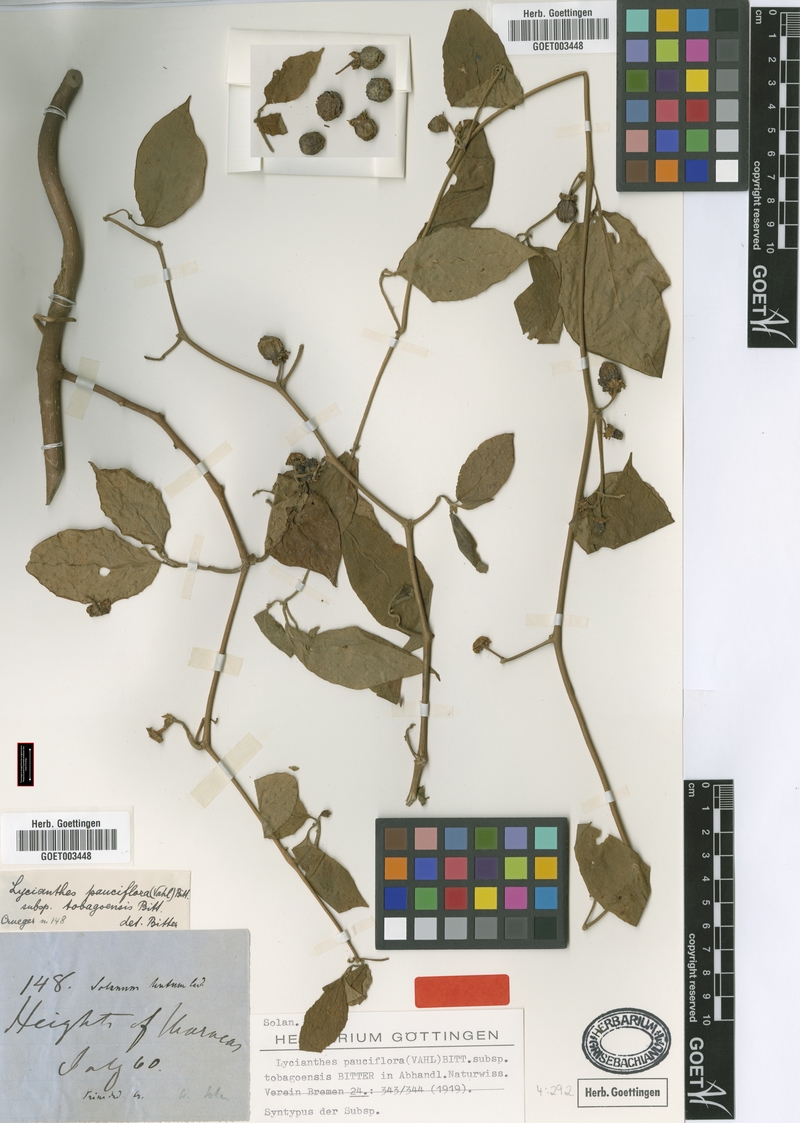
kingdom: Plantae
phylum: Tracheophyta
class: Magnoliopsida
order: Solanales
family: Solanaceae
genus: Lycianthes
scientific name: Lycianthes pauciflora
